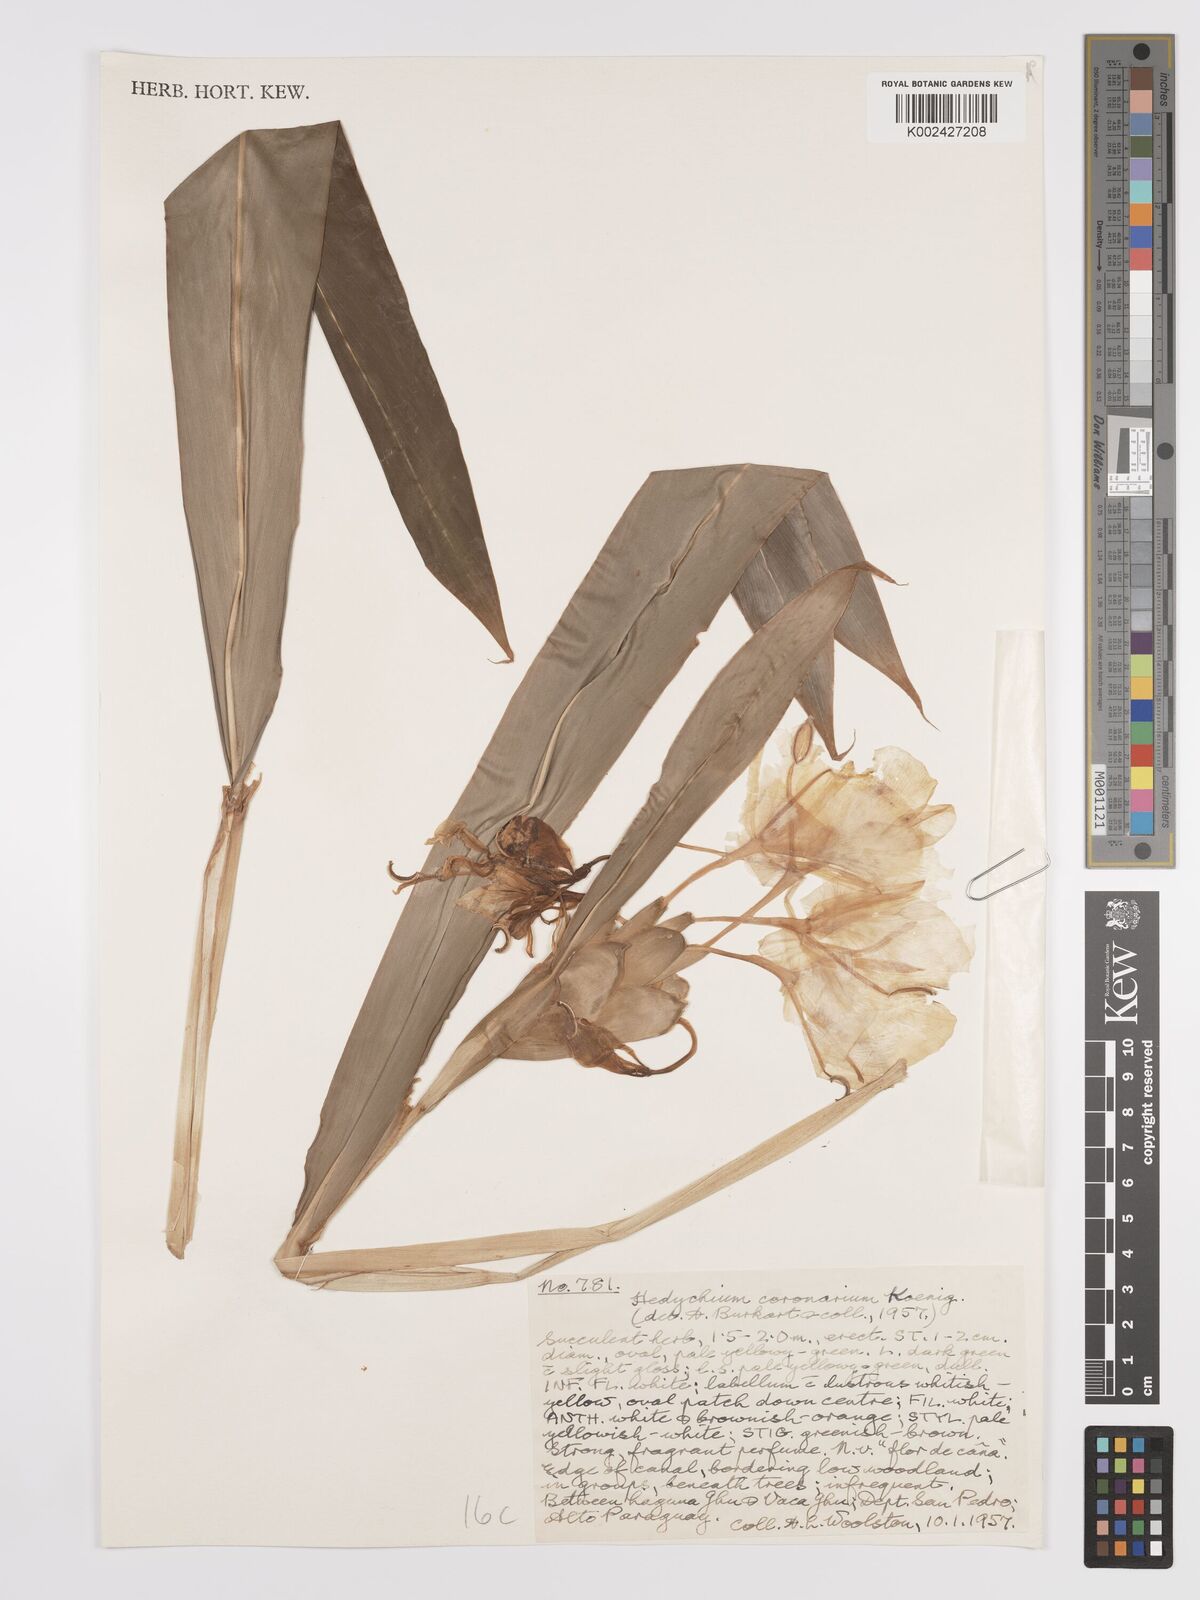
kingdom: Plantae
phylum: Tracheophyta
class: Liliopsida
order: Zingiberales
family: Zingiberaceae
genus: Hedychium
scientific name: Hedychium coronarium
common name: White garland-lily
